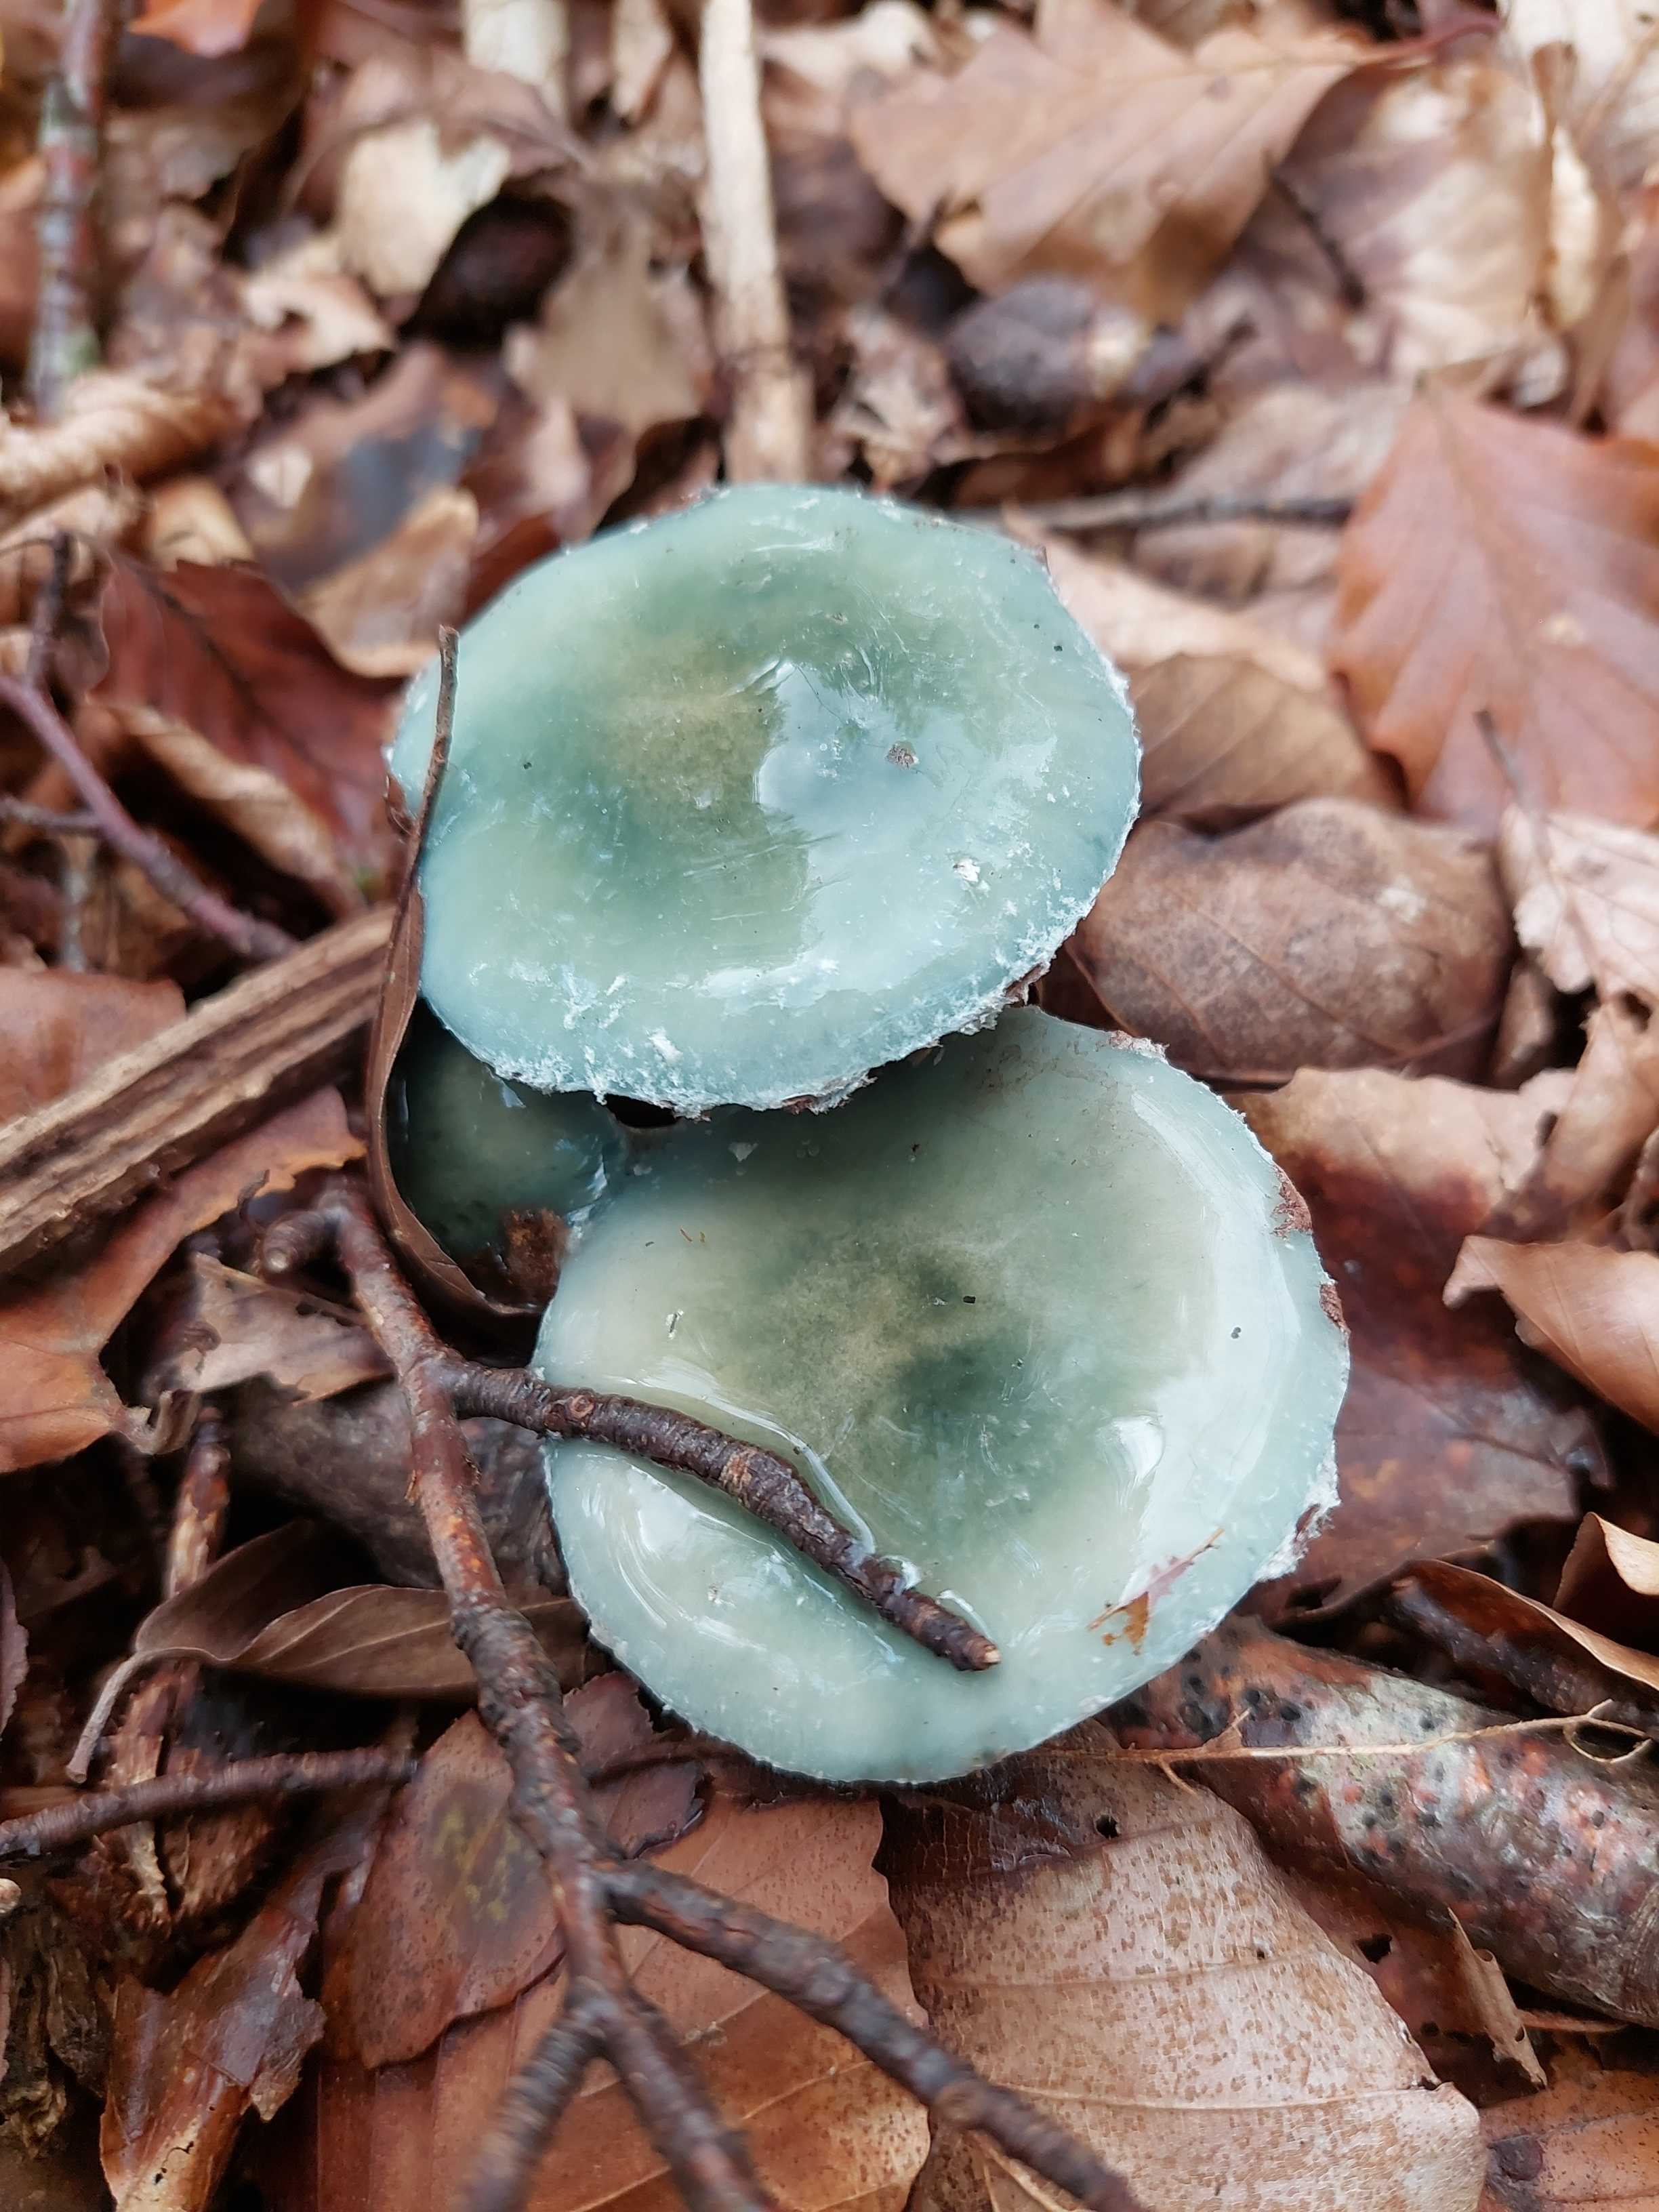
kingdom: Fungi
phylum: Basidiomycota
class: Agaricomycetes
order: Agaricales
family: Strophariaceae
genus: Stropharia
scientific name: Stropharia
